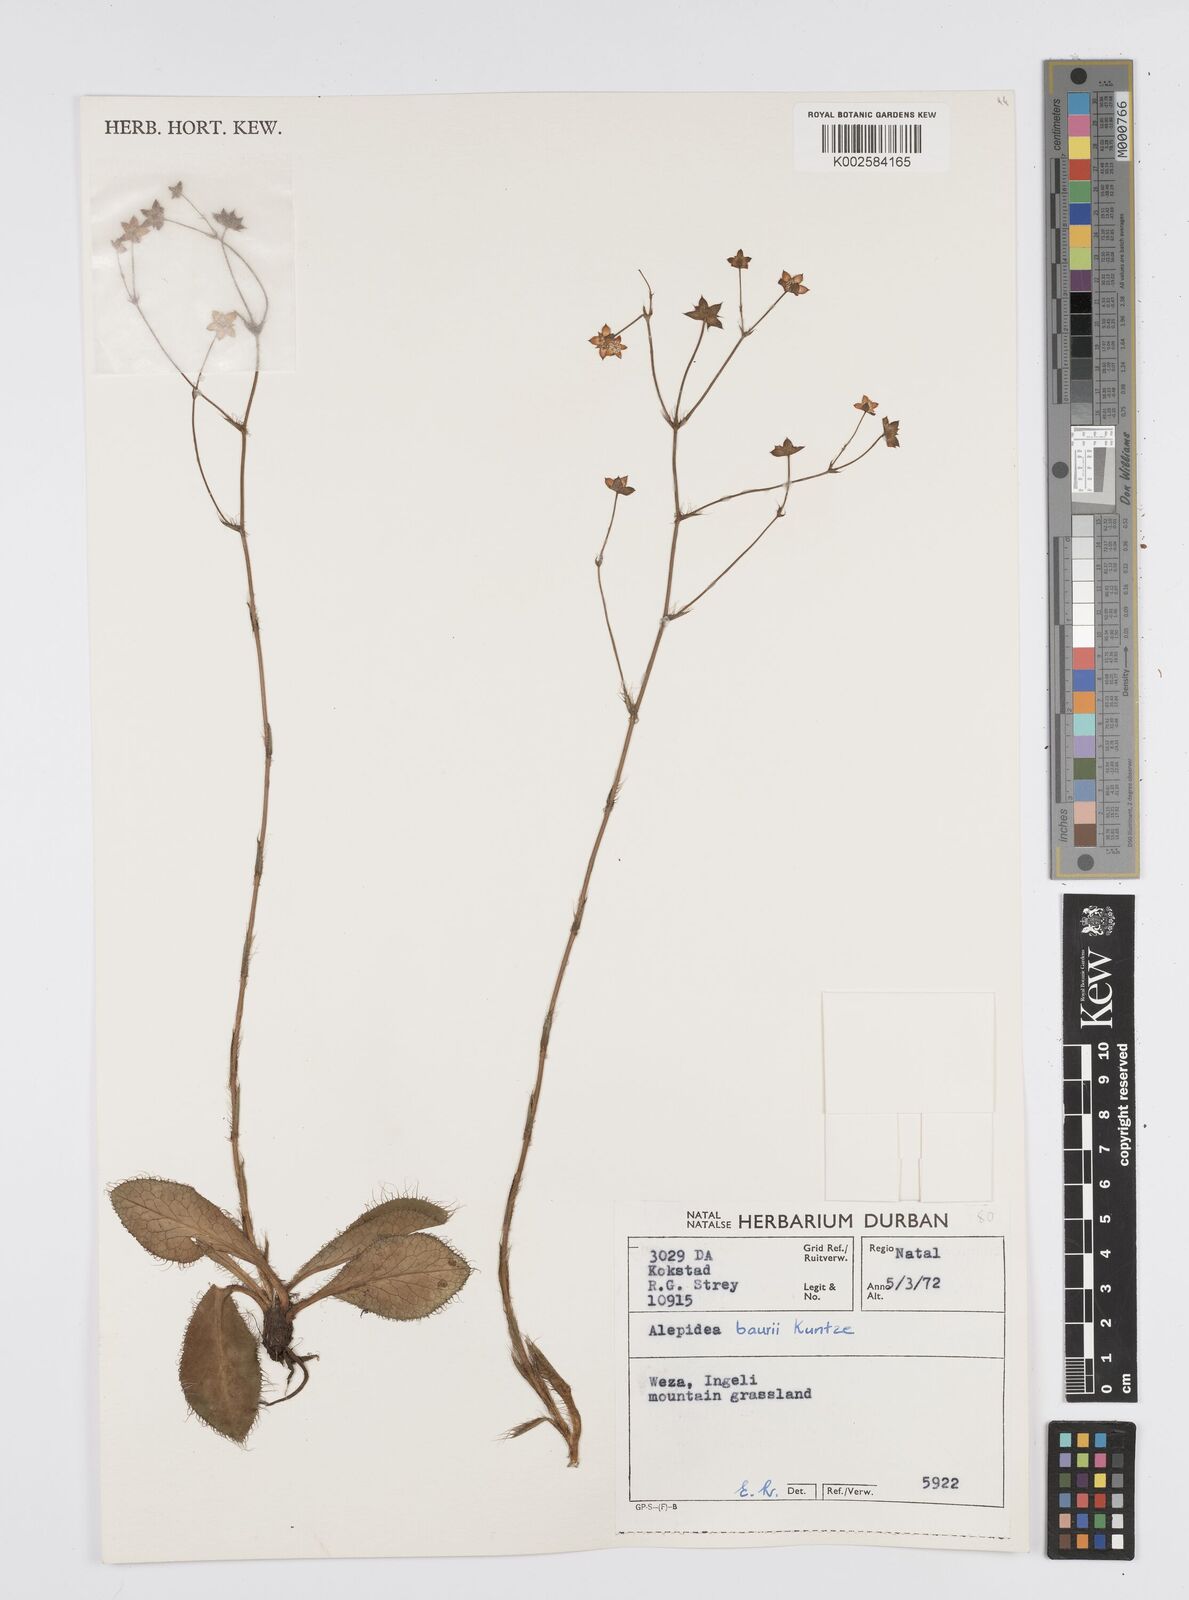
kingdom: Plantae
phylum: Tracheophyta
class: Magnoliopsida
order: Apiales
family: Apiaceae
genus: Alepidea
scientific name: Alepidea natalensis
